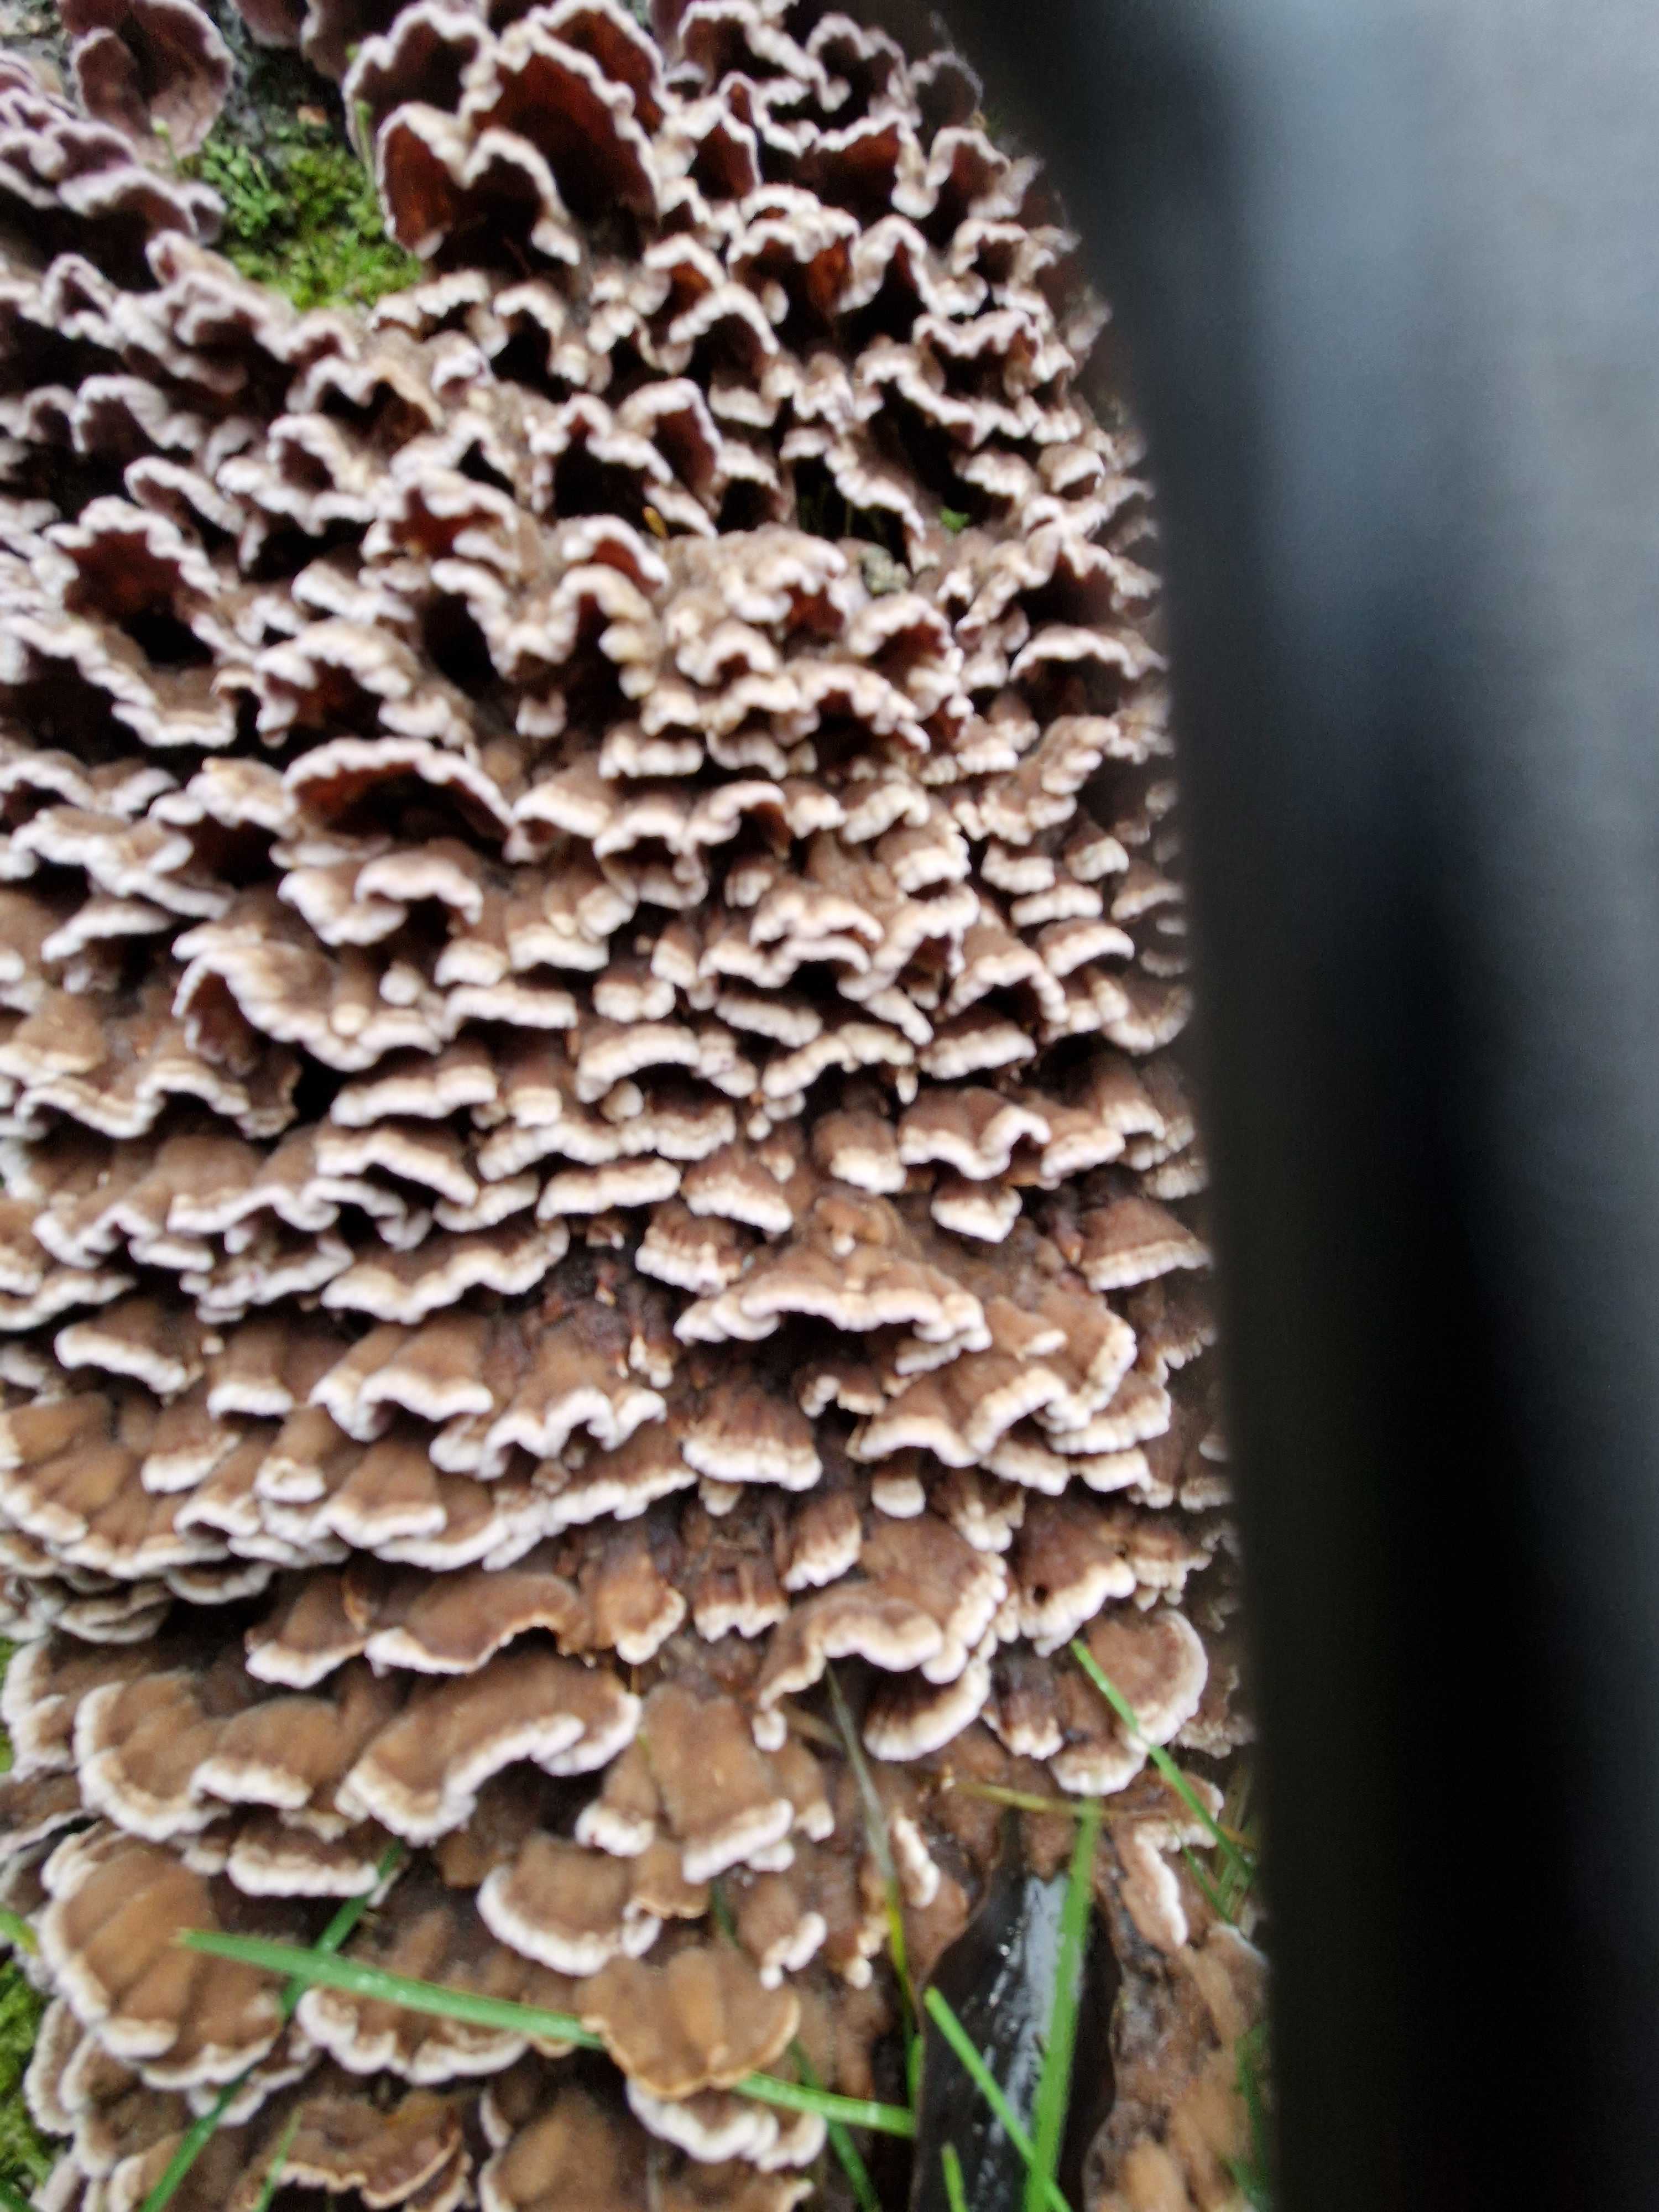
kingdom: Fungi
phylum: Basidiomycota
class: Agaricomycetes
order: Agaricales
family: Cyphellaceae
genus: Chondrostereum
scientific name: Chondrostereum purpureum
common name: purpurlædersvamp
